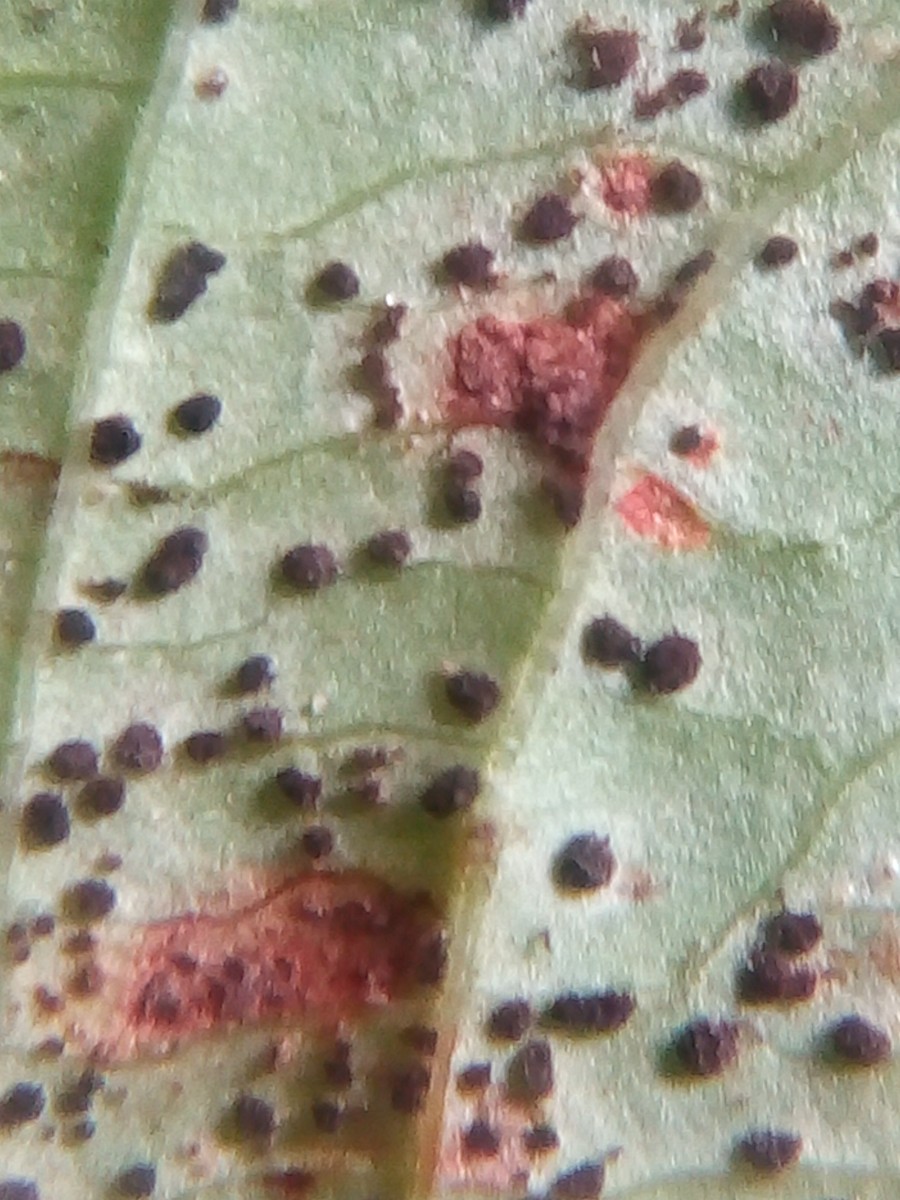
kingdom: Fungi
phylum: Basidiomycota
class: Pucciniomycetes
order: Pucciniales
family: Pucciniaceae
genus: Puccinia
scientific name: Puccinia komarovii
